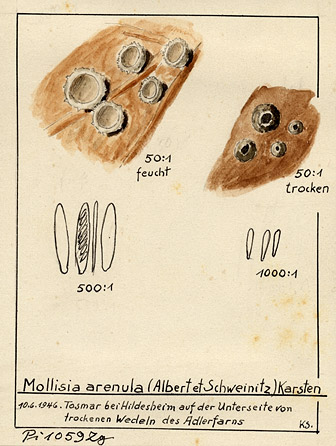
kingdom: Fungi
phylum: Ascomycota
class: Leotiomycetes
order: Helotiales
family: Hamatocanthoscyphaceae
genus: Microscypha
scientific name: Microscypha arenula
